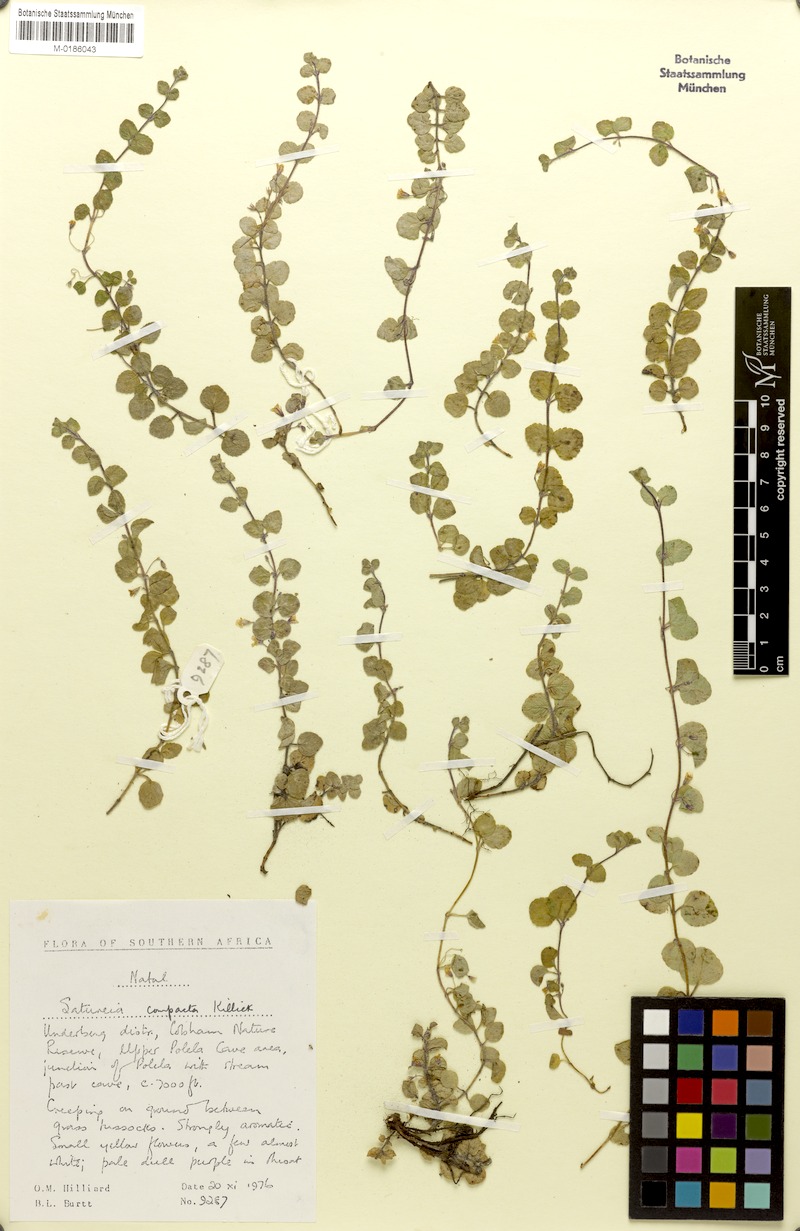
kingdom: Plantae
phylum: Tracheophyta
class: Magnoliopsida
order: Lamiales
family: Lamiaceae
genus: Killickia
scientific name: Killickia lutea
